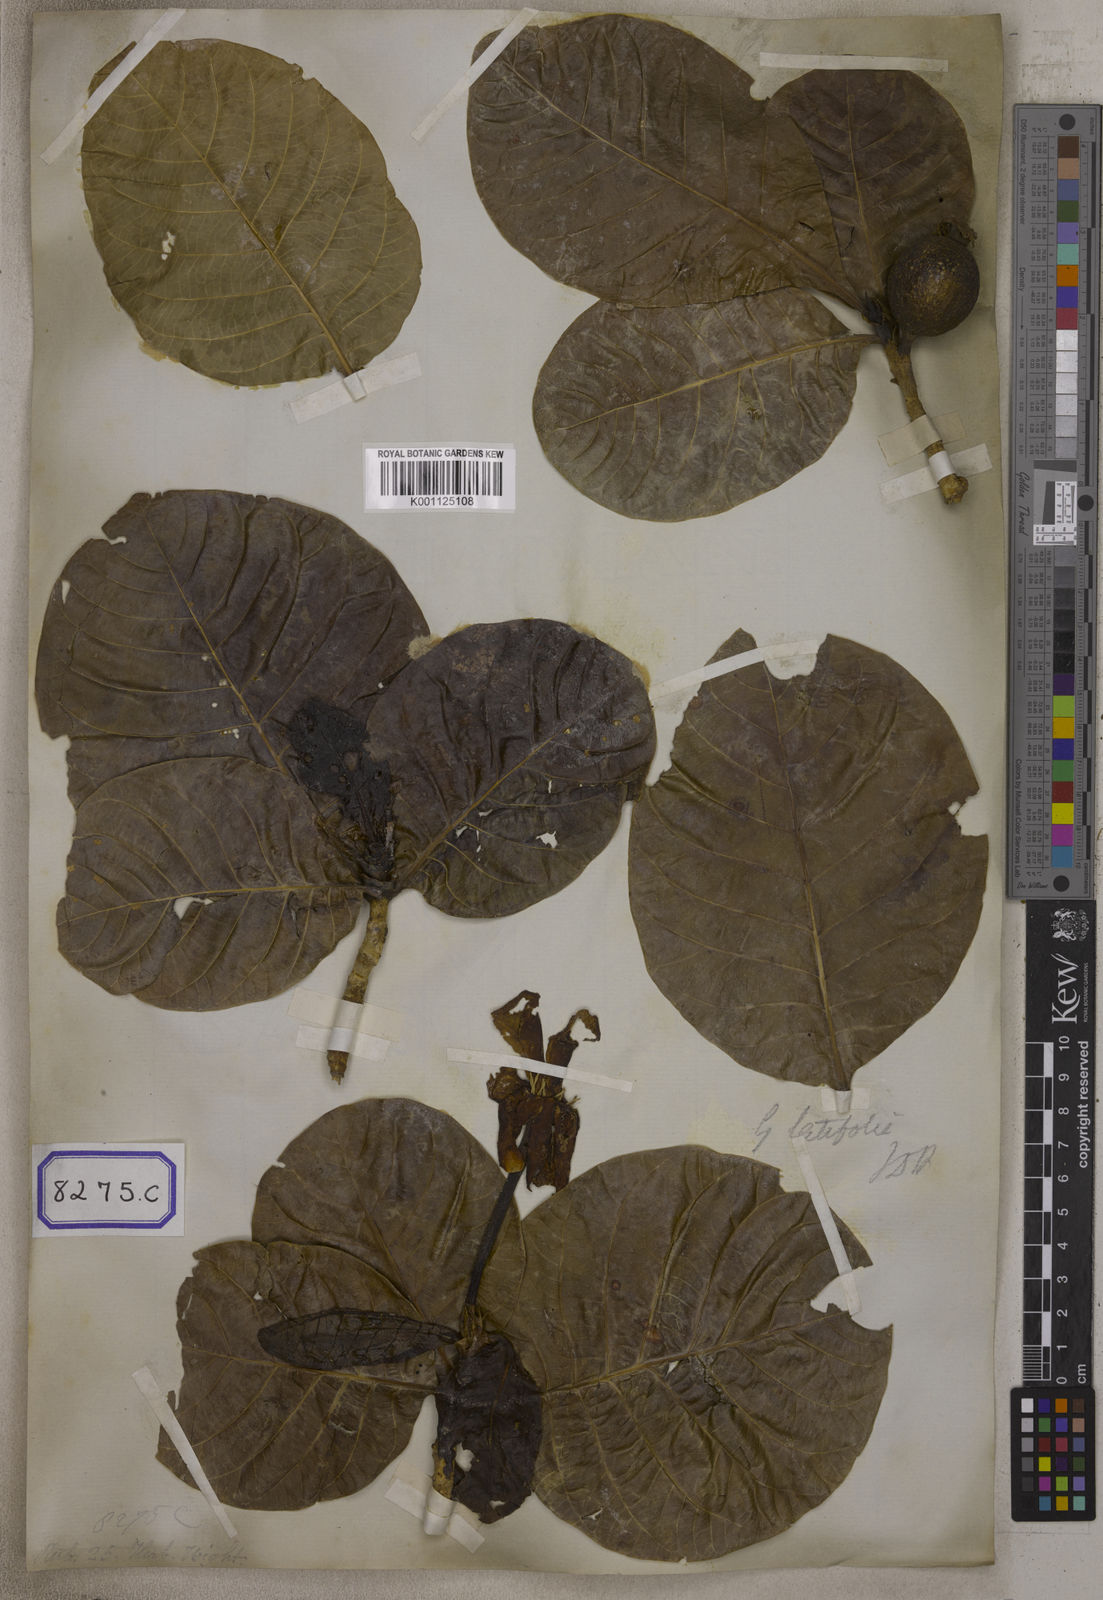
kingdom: Plantae
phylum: Tracheophyta
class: Magnoliopsida
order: Gentianales
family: Rubiaceae
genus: Gardenia
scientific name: Gardenia
